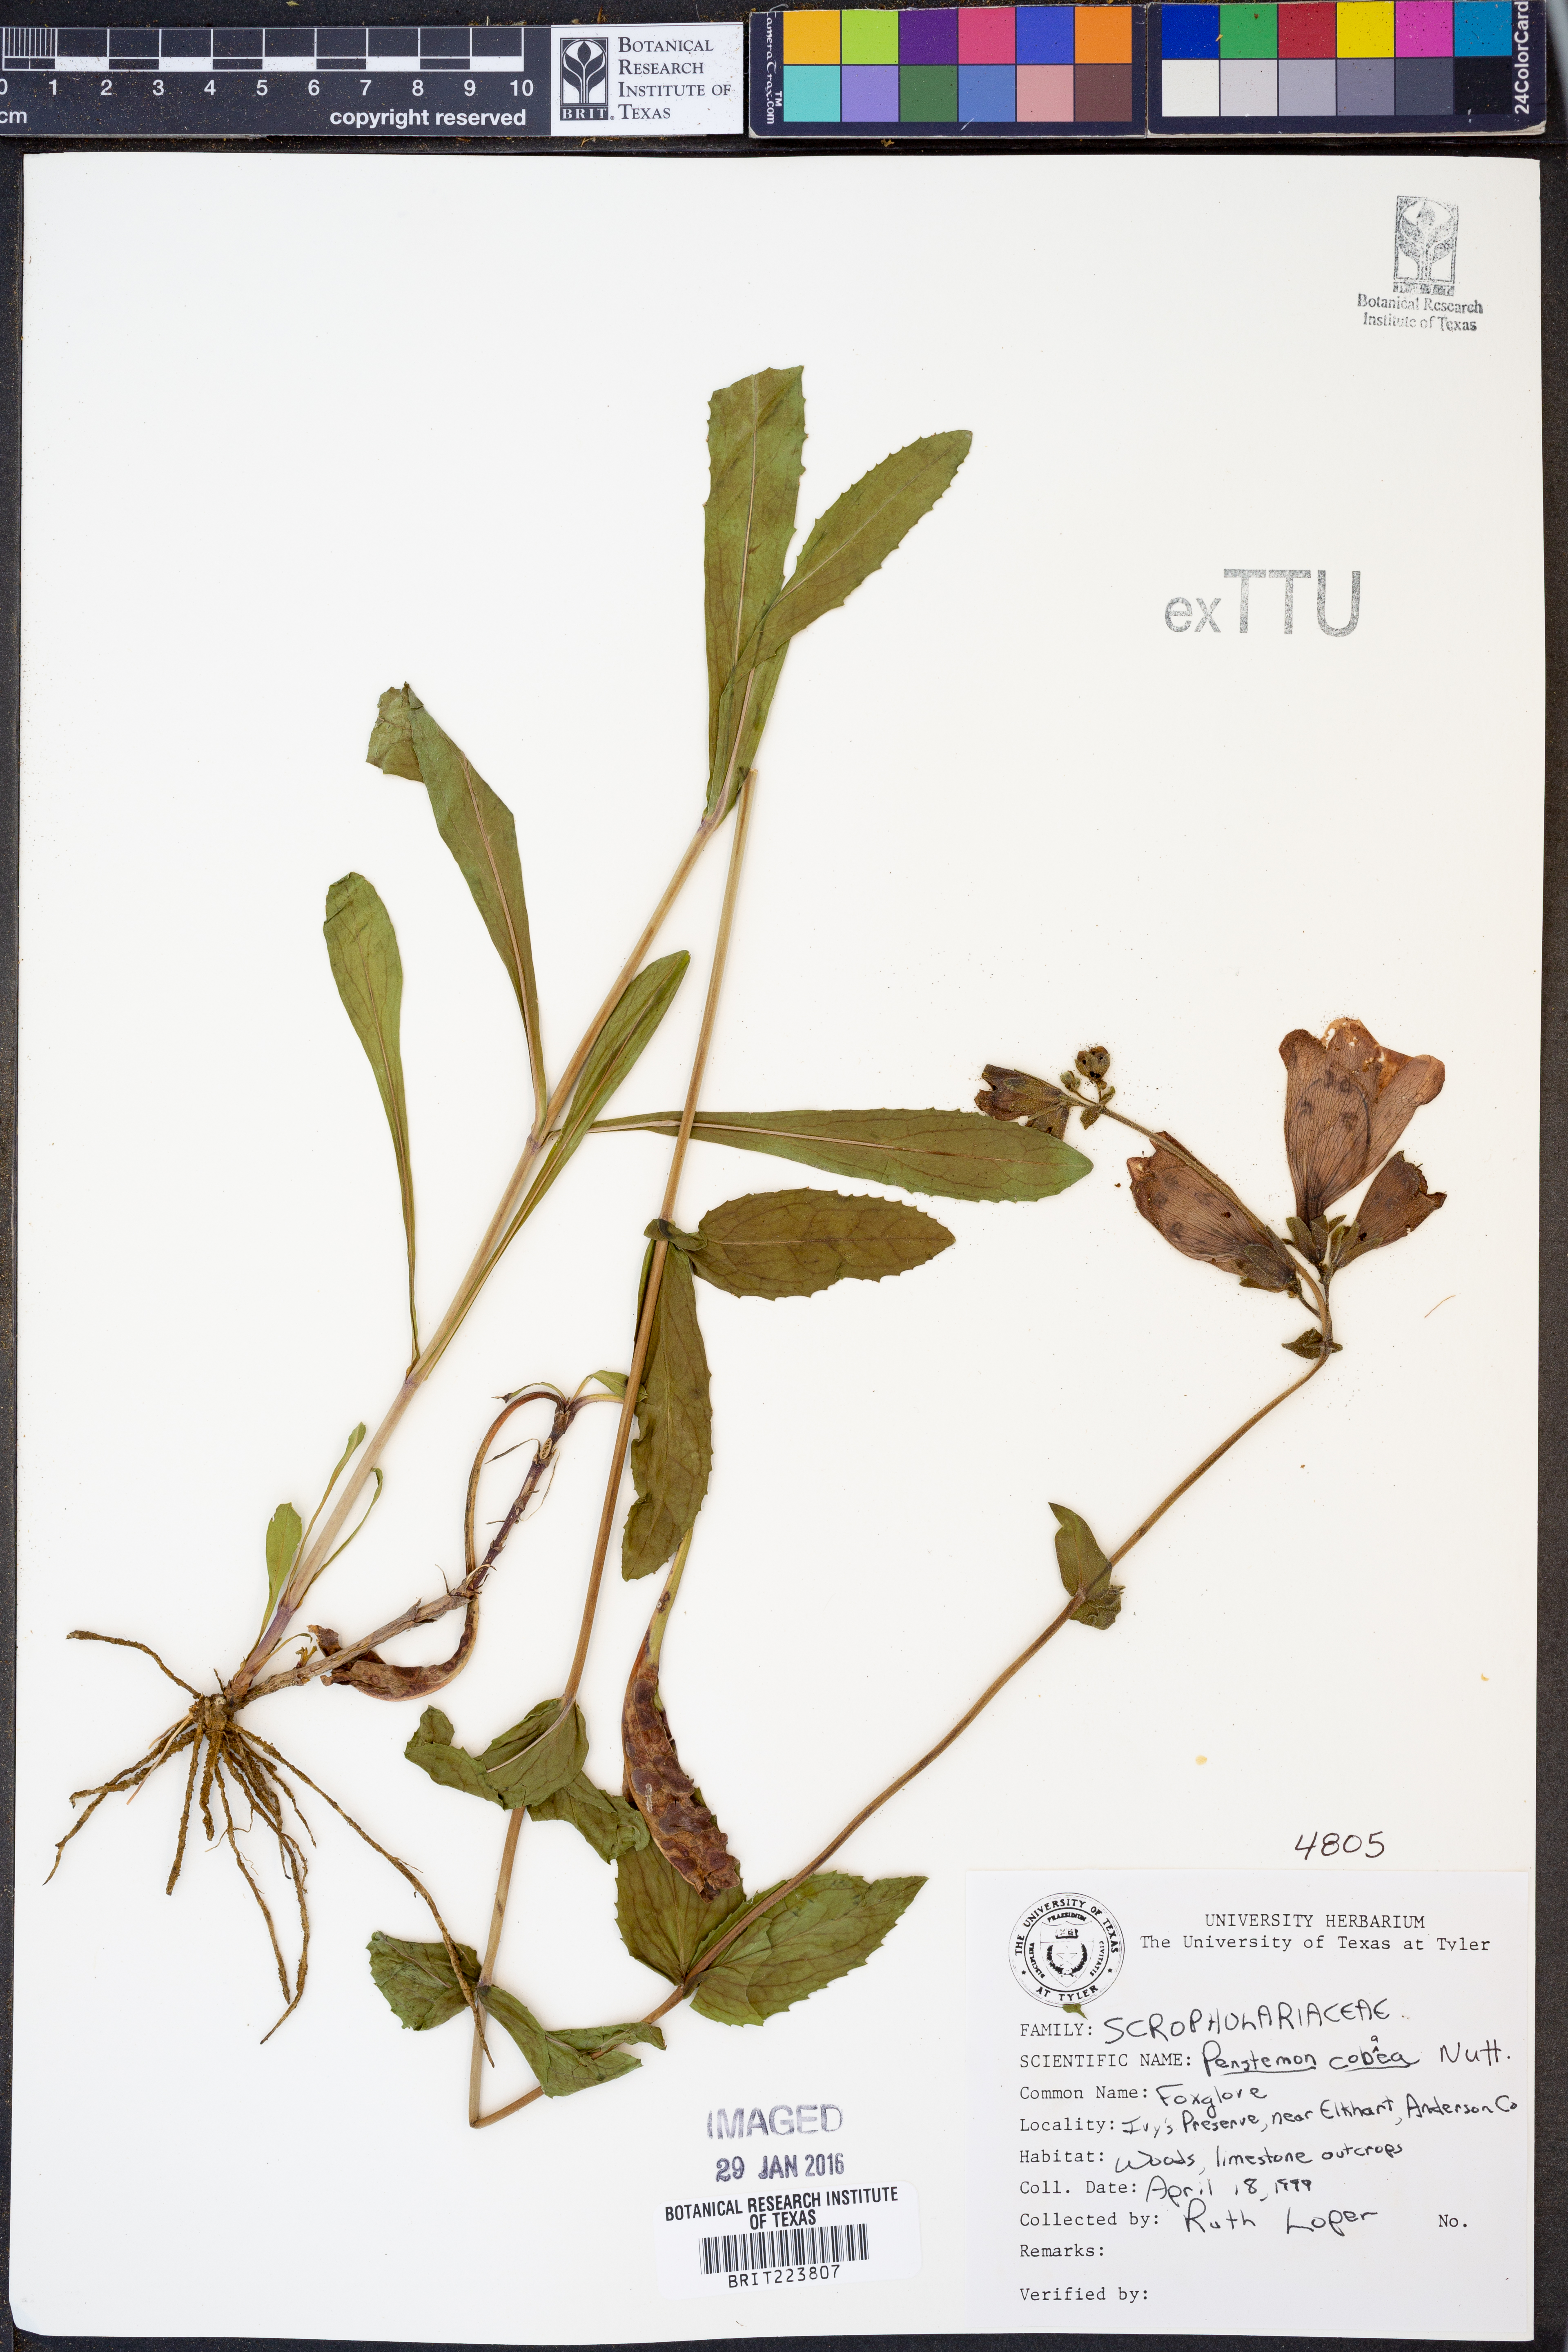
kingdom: Plantae
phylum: Tracheophyta
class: Magnoliopsida
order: Lamiales
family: Plantaginaceae
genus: Penstemon
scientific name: Penstemon cobaea
